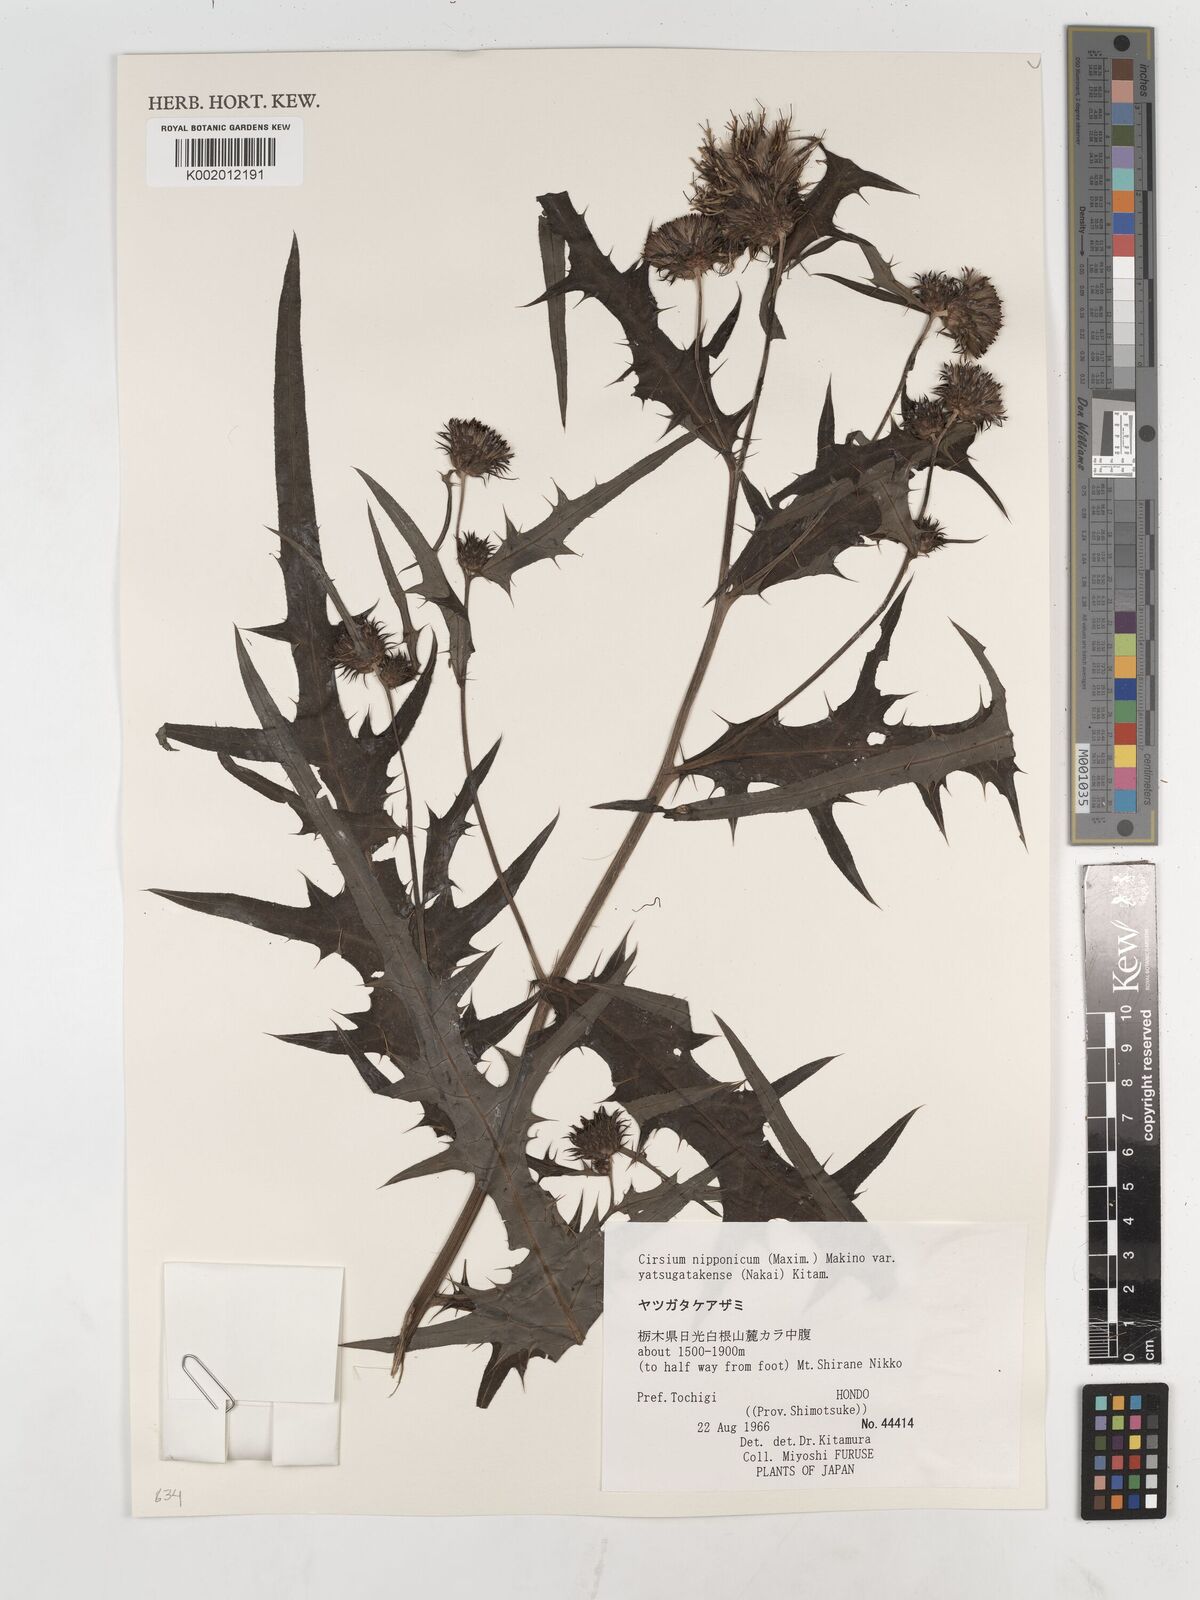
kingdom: Plantae
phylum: Tracheophyta
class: Magnoliopsida
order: Asterales
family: Asteraceae
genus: Cirsium
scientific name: Cirsium nipponicum
